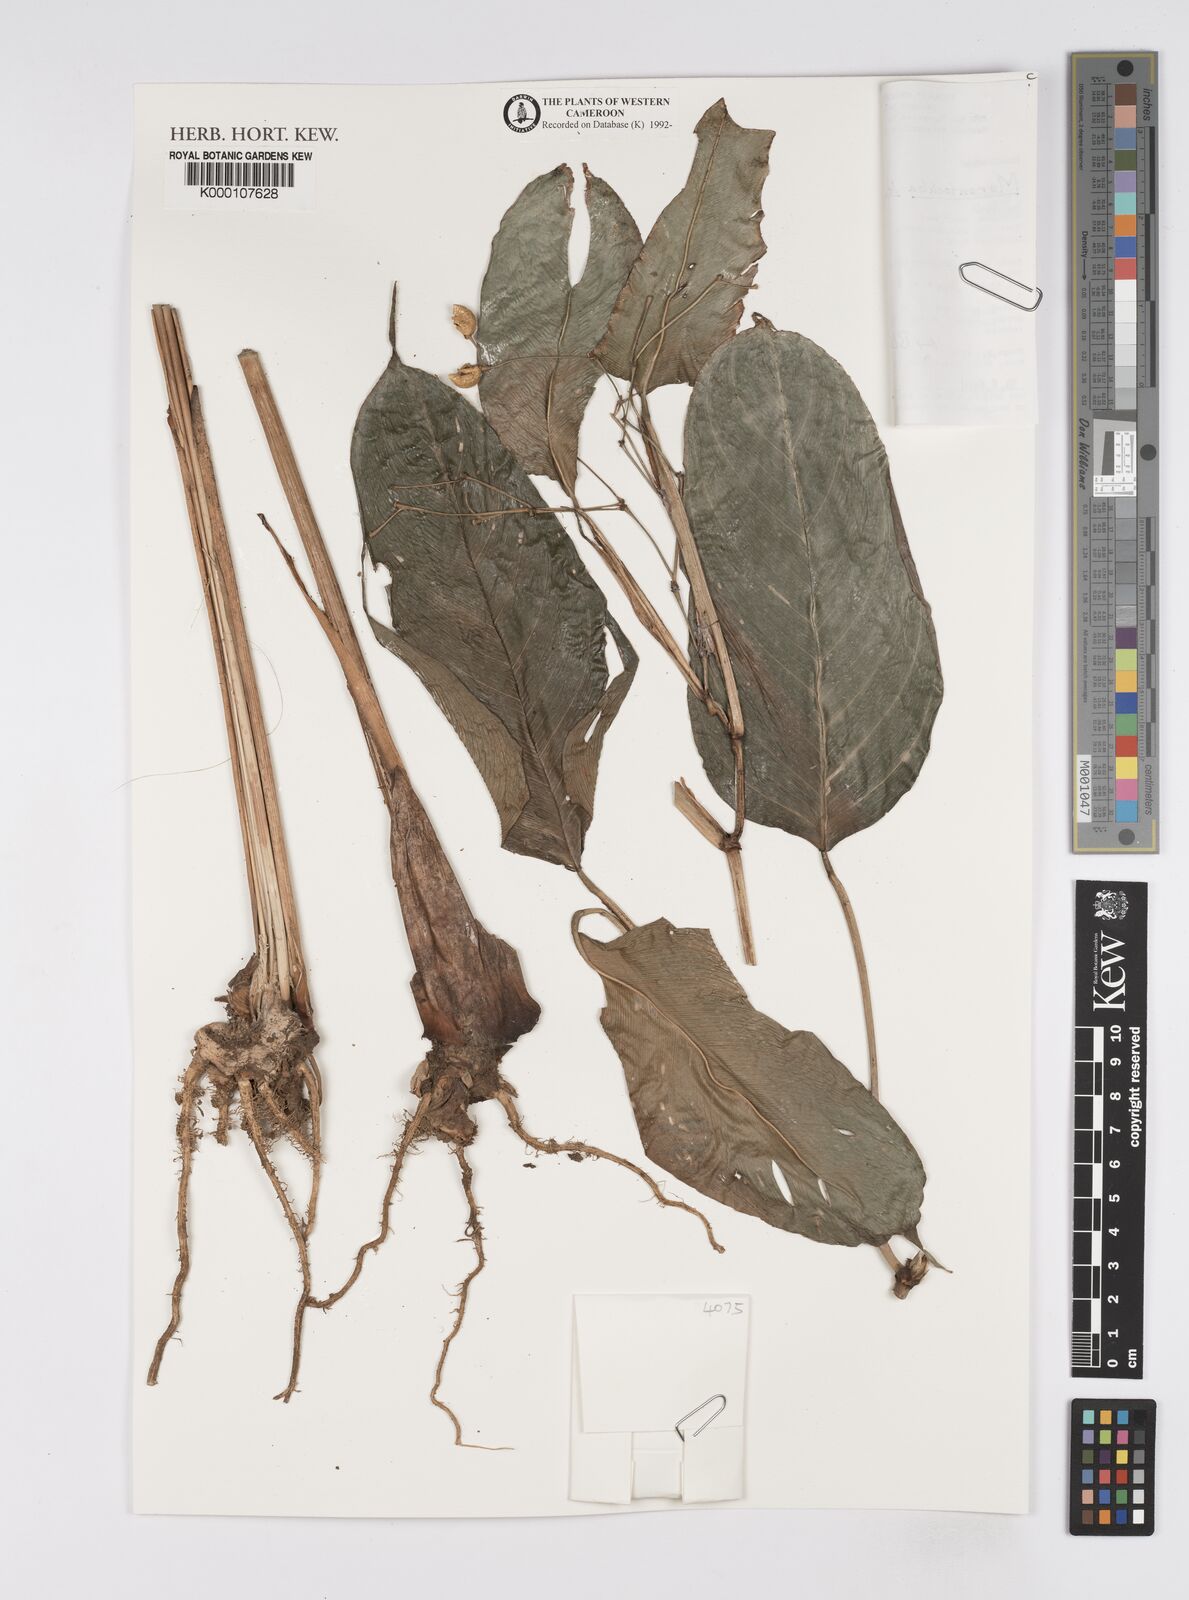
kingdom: Plantae
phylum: Tracheophyta
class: Liliopsida
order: Zingiberales
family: Marantaceae
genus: Marantochloa
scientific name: Marantochloa leucantha
